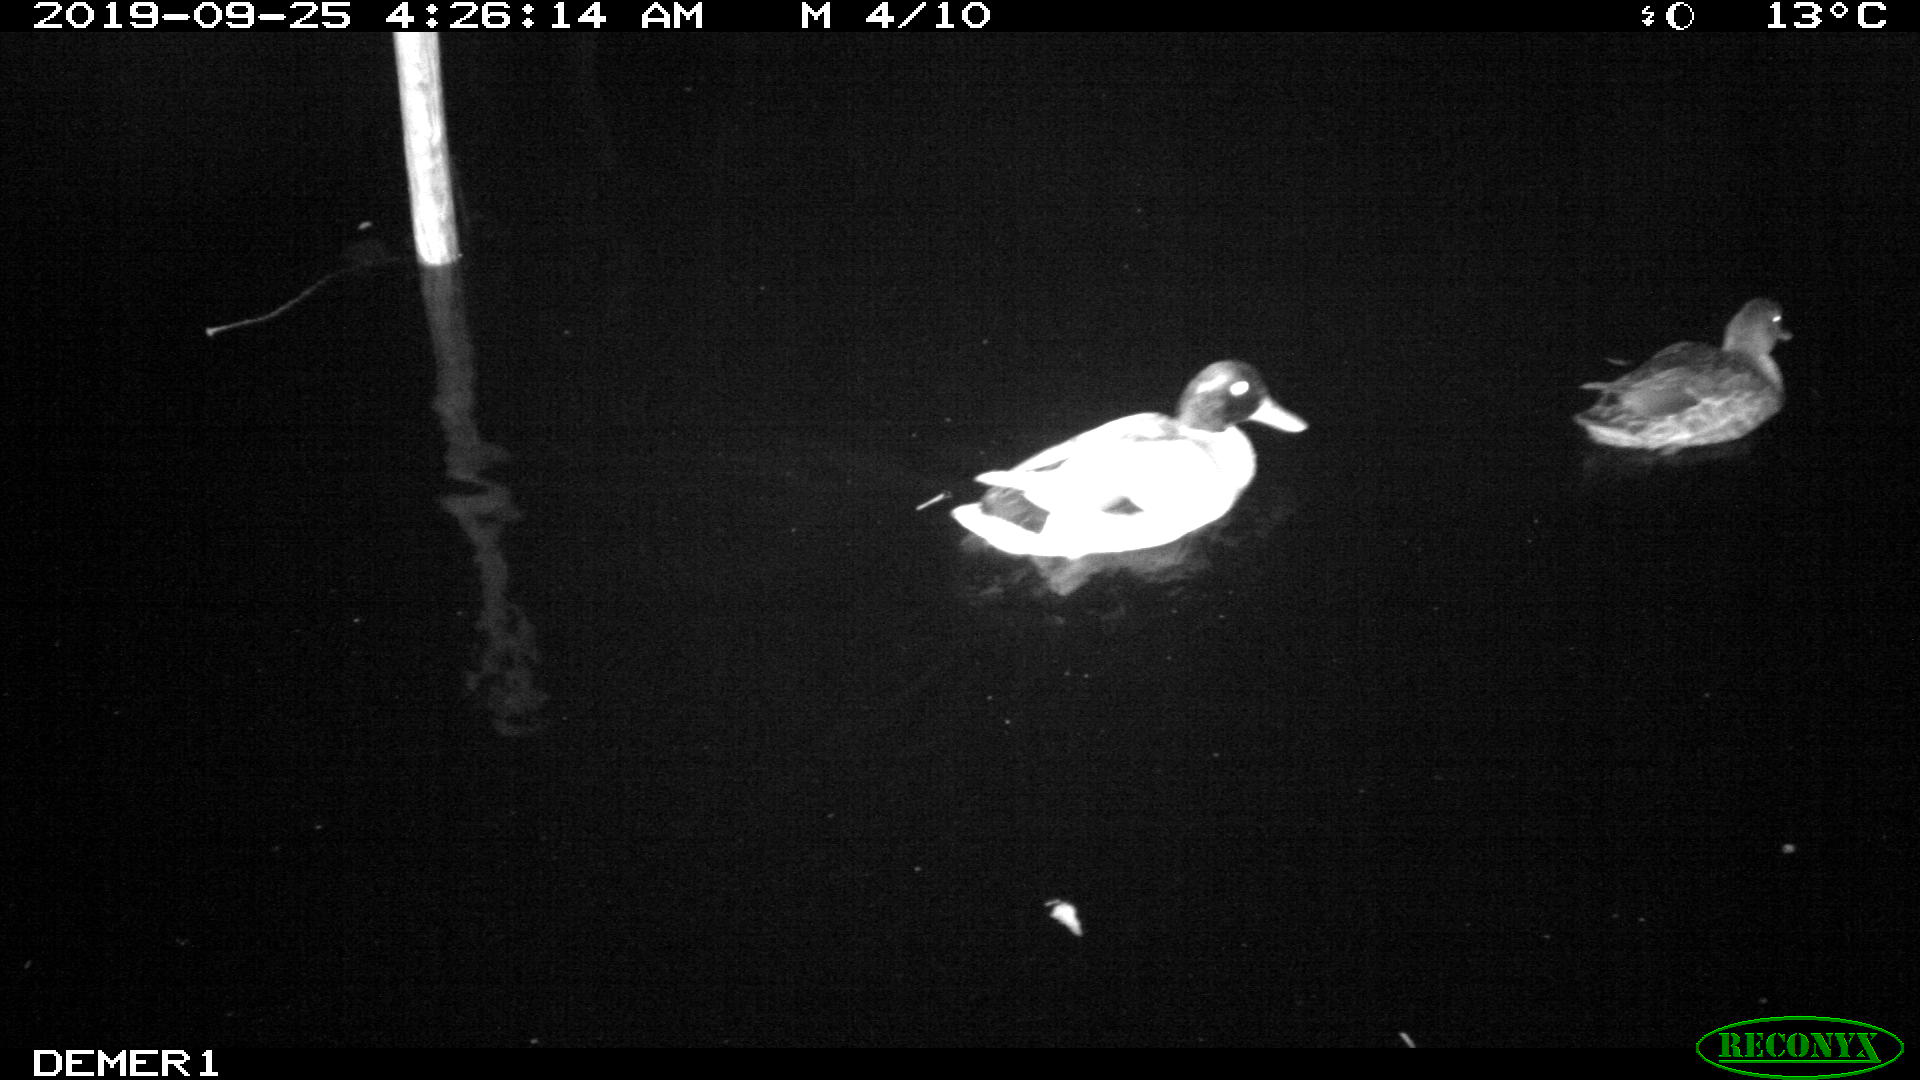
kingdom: Animalia
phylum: Chordata
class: Aves
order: Anseriformes
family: Anatidae
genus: Anas
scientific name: Anas platyrhynchos
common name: Mallard
